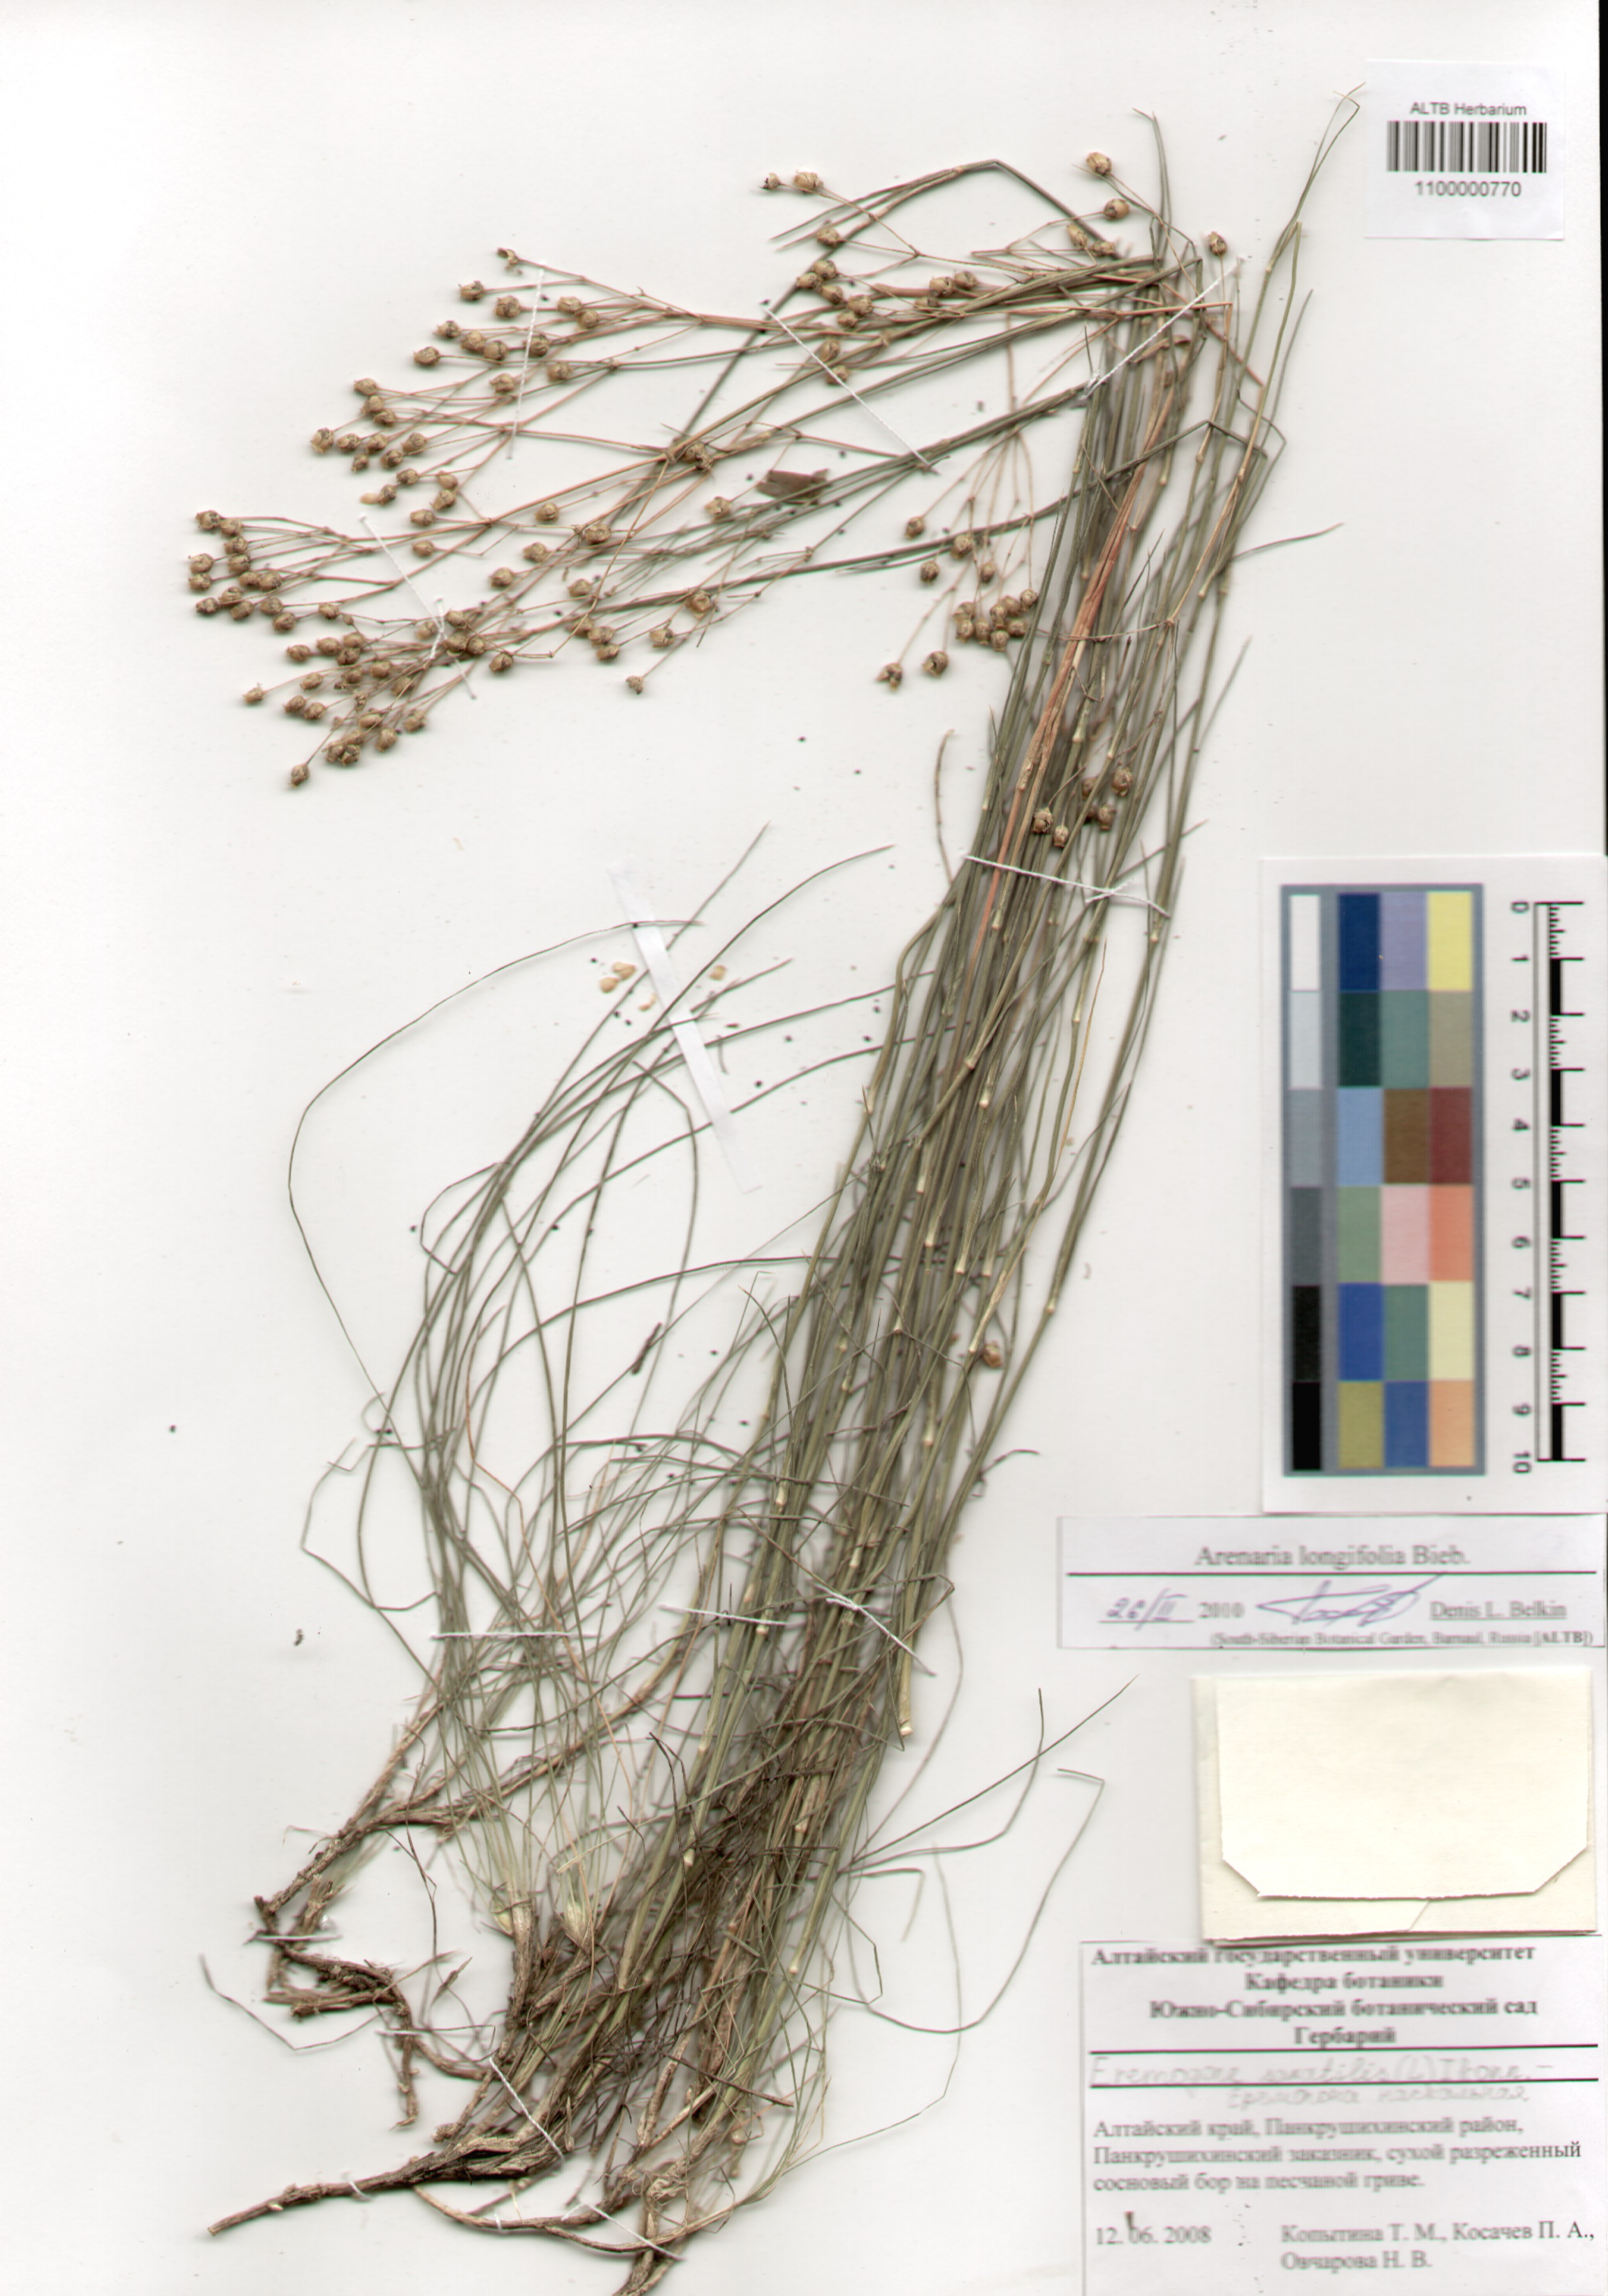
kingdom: Plantae
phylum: Tracheophyta
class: Magnoliopsida
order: Caryophyllales
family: Caryophyllaceae
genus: Eremogone
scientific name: Eremogone longifolia
